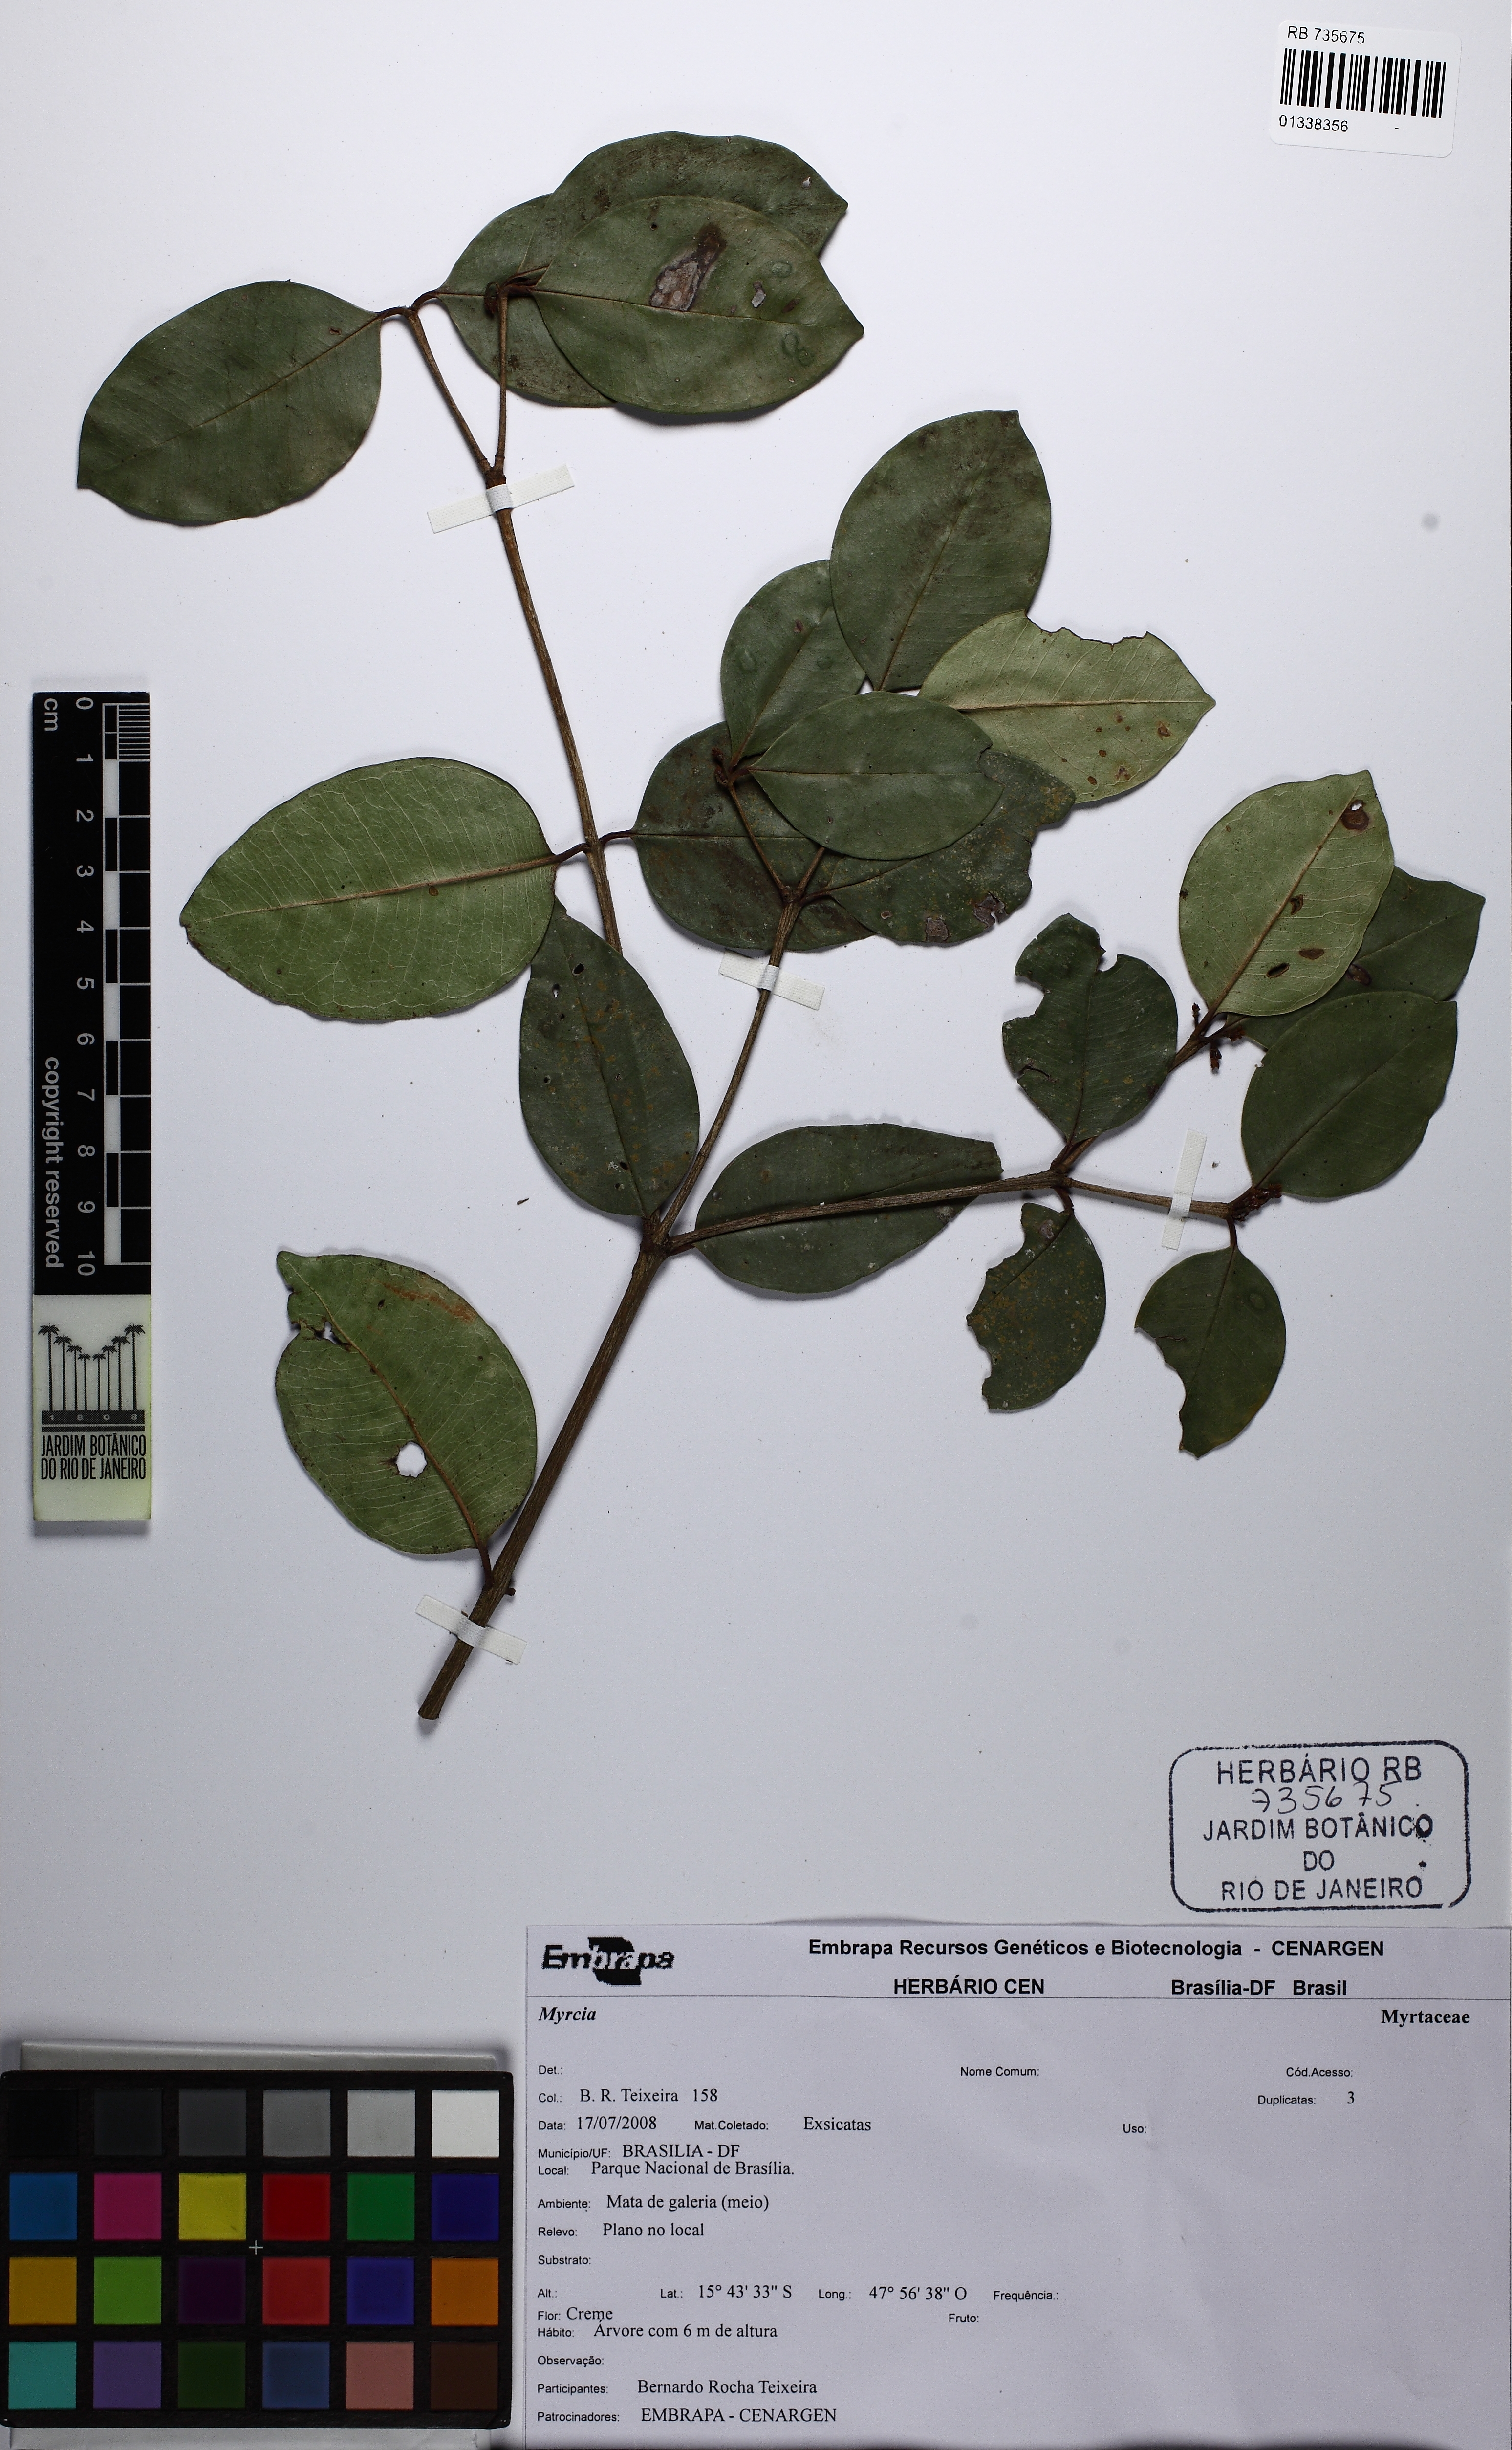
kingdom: Plantae
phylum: Tracheophyta
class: Magnoliopsida
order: Myrtales
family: Myrtaceae
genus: Myrcia
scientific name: Myrcia
